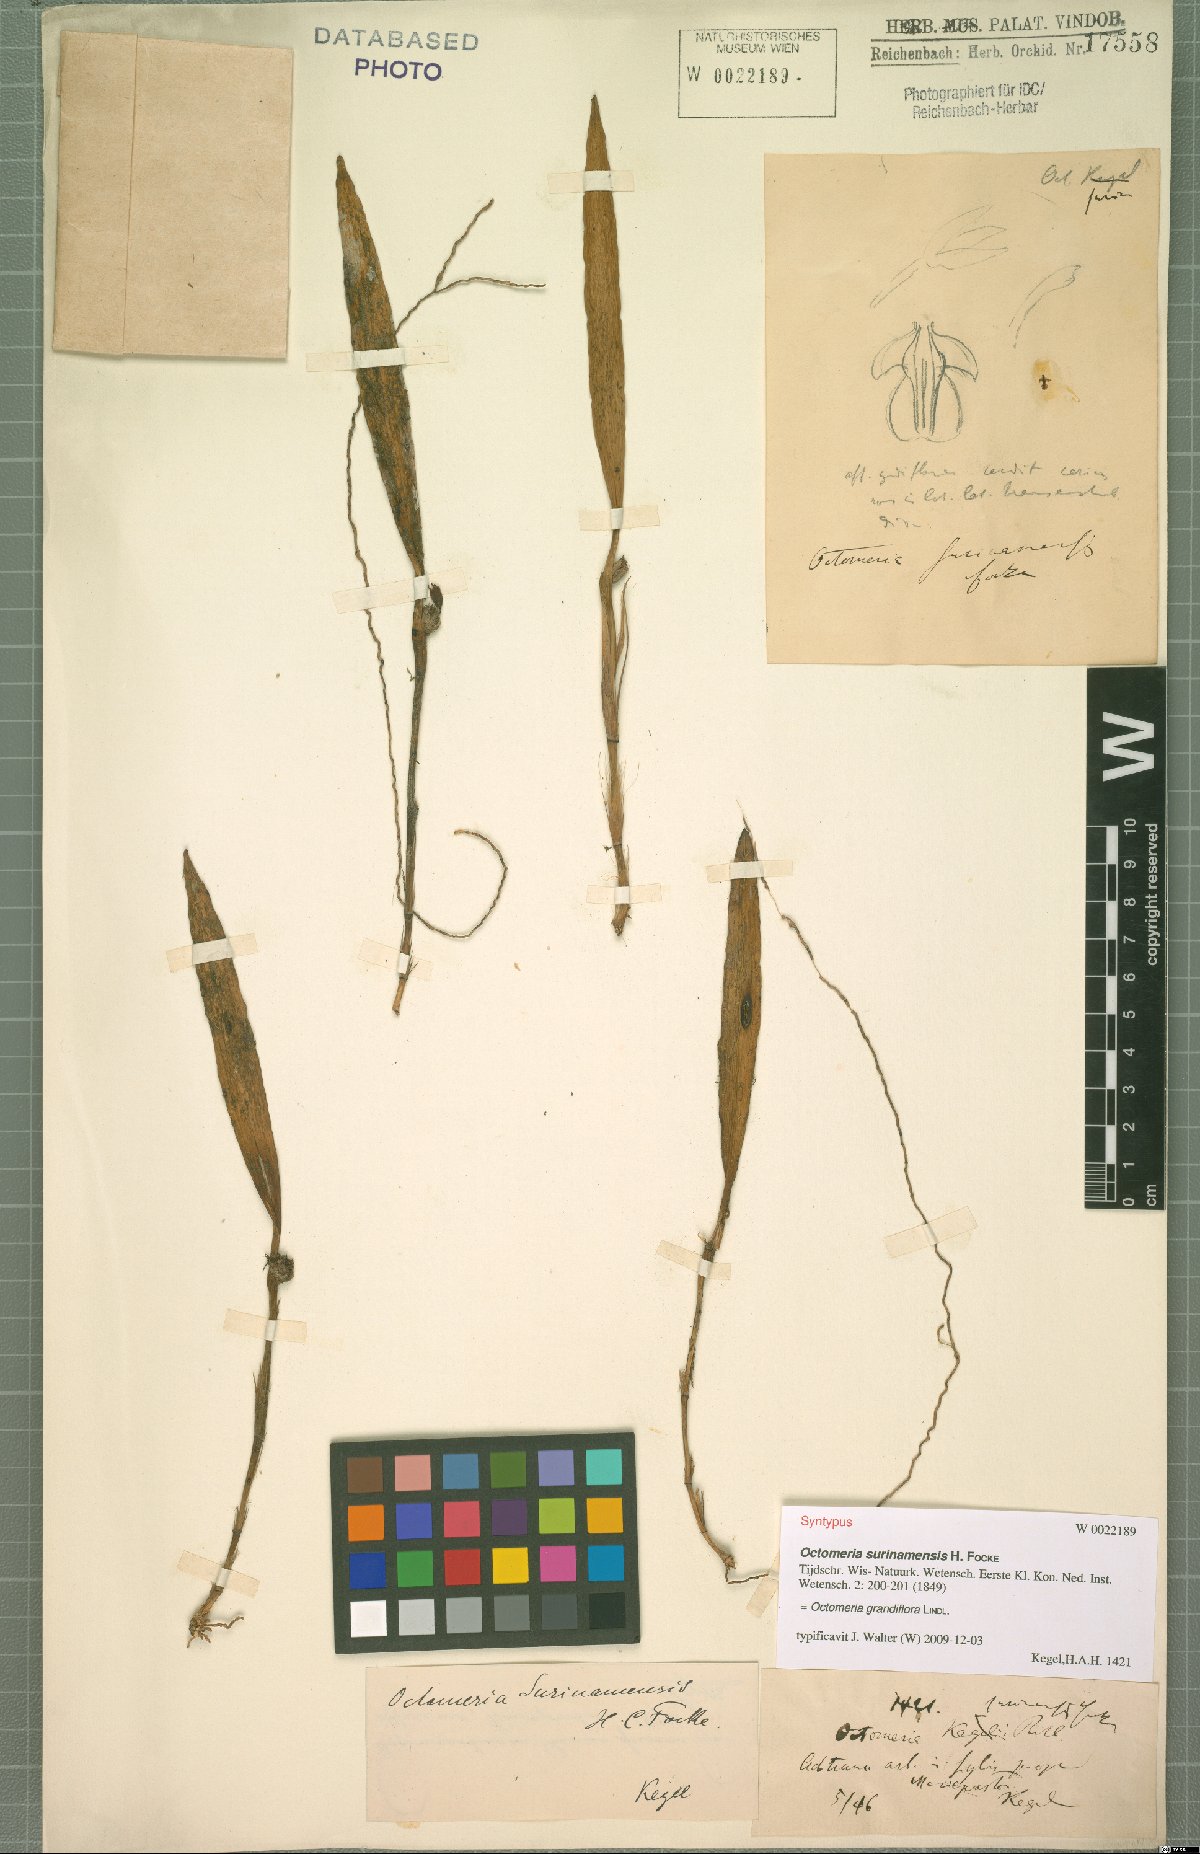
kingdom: Plantae
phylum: Tracheophyta
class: Liliopsida
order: Asparagales
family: Orchidaceae
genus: Octomeria
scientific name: Octomeria grandiflora
